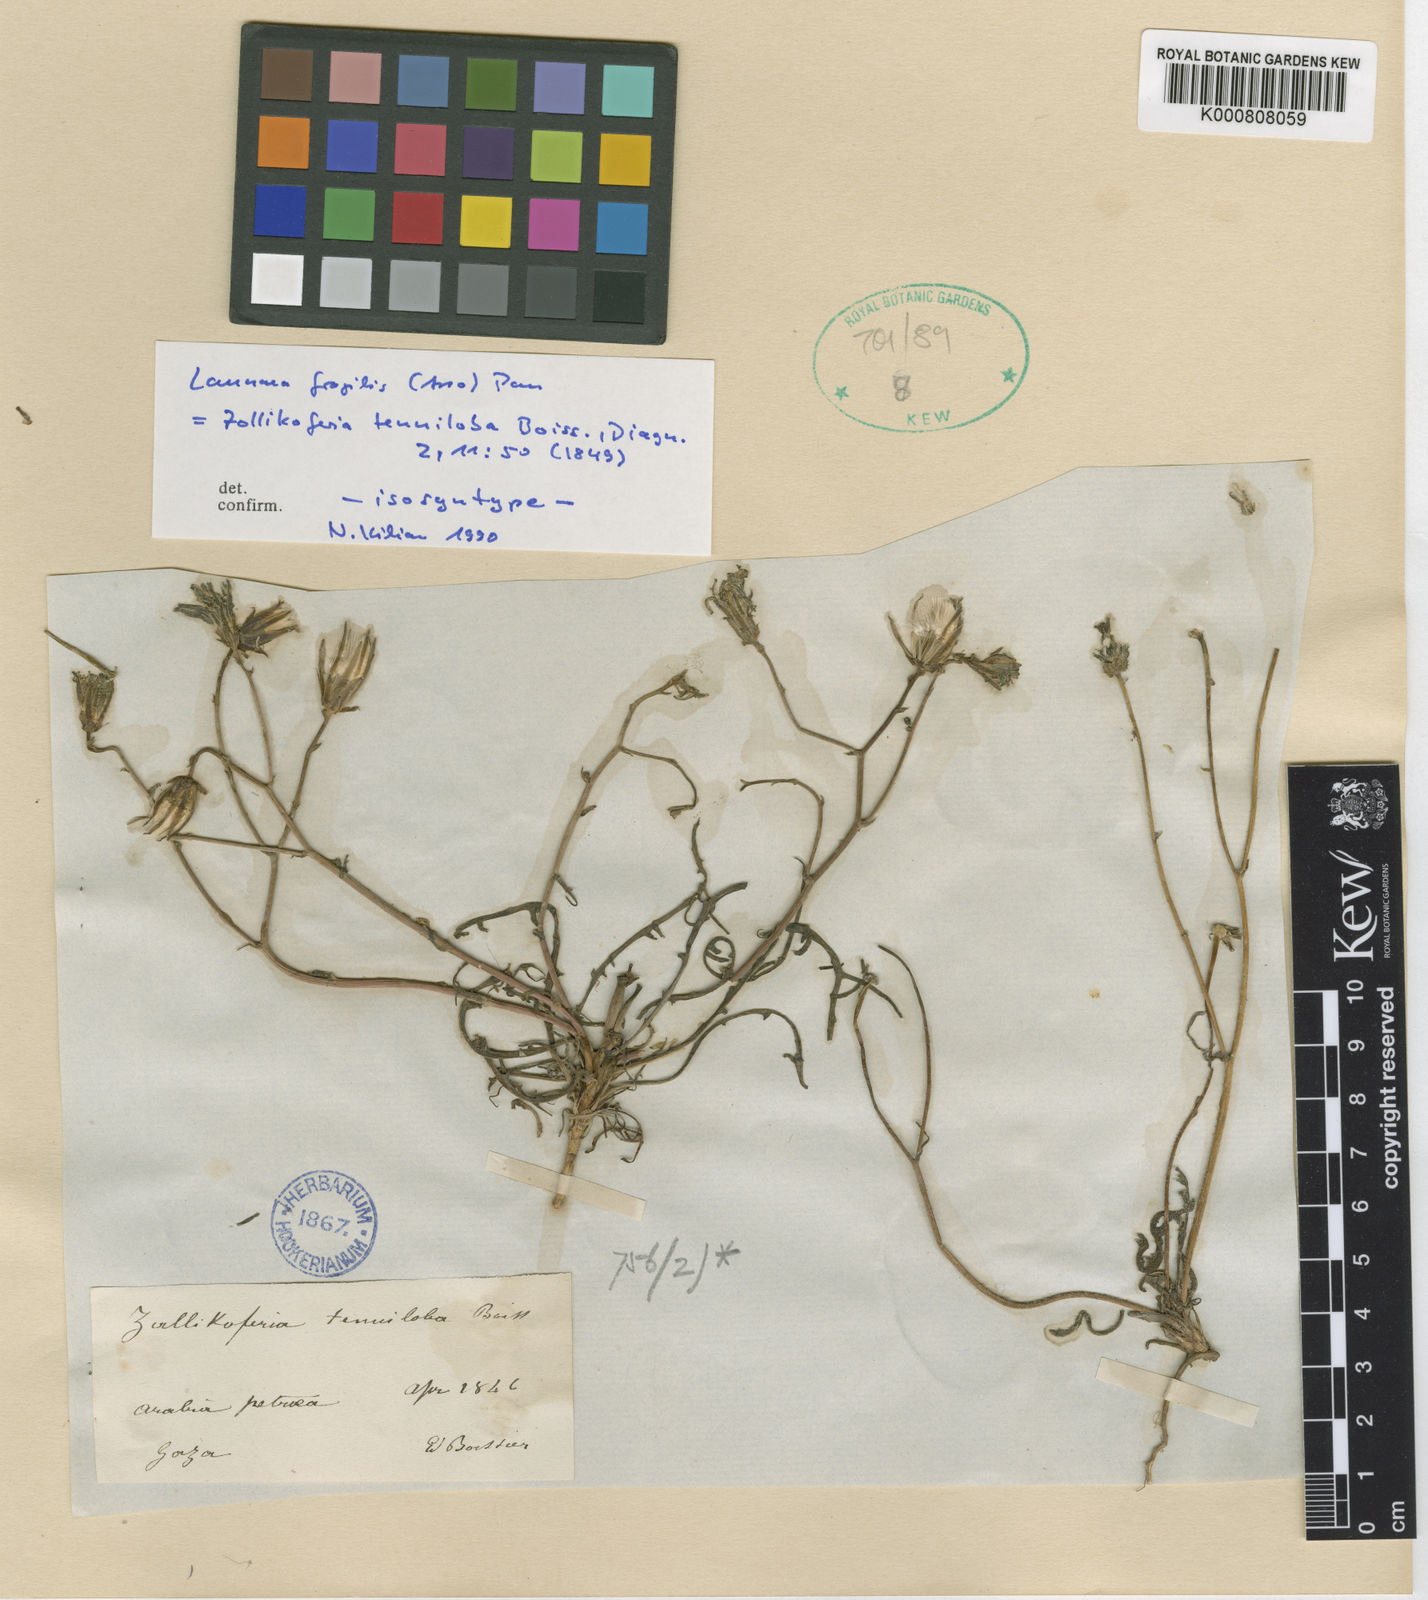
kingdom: Plantae
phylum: Tracheophyta
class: Magnoliopsida
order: Asterales
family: Asteraceae
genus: Launaea
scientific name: Launaea fragilis
